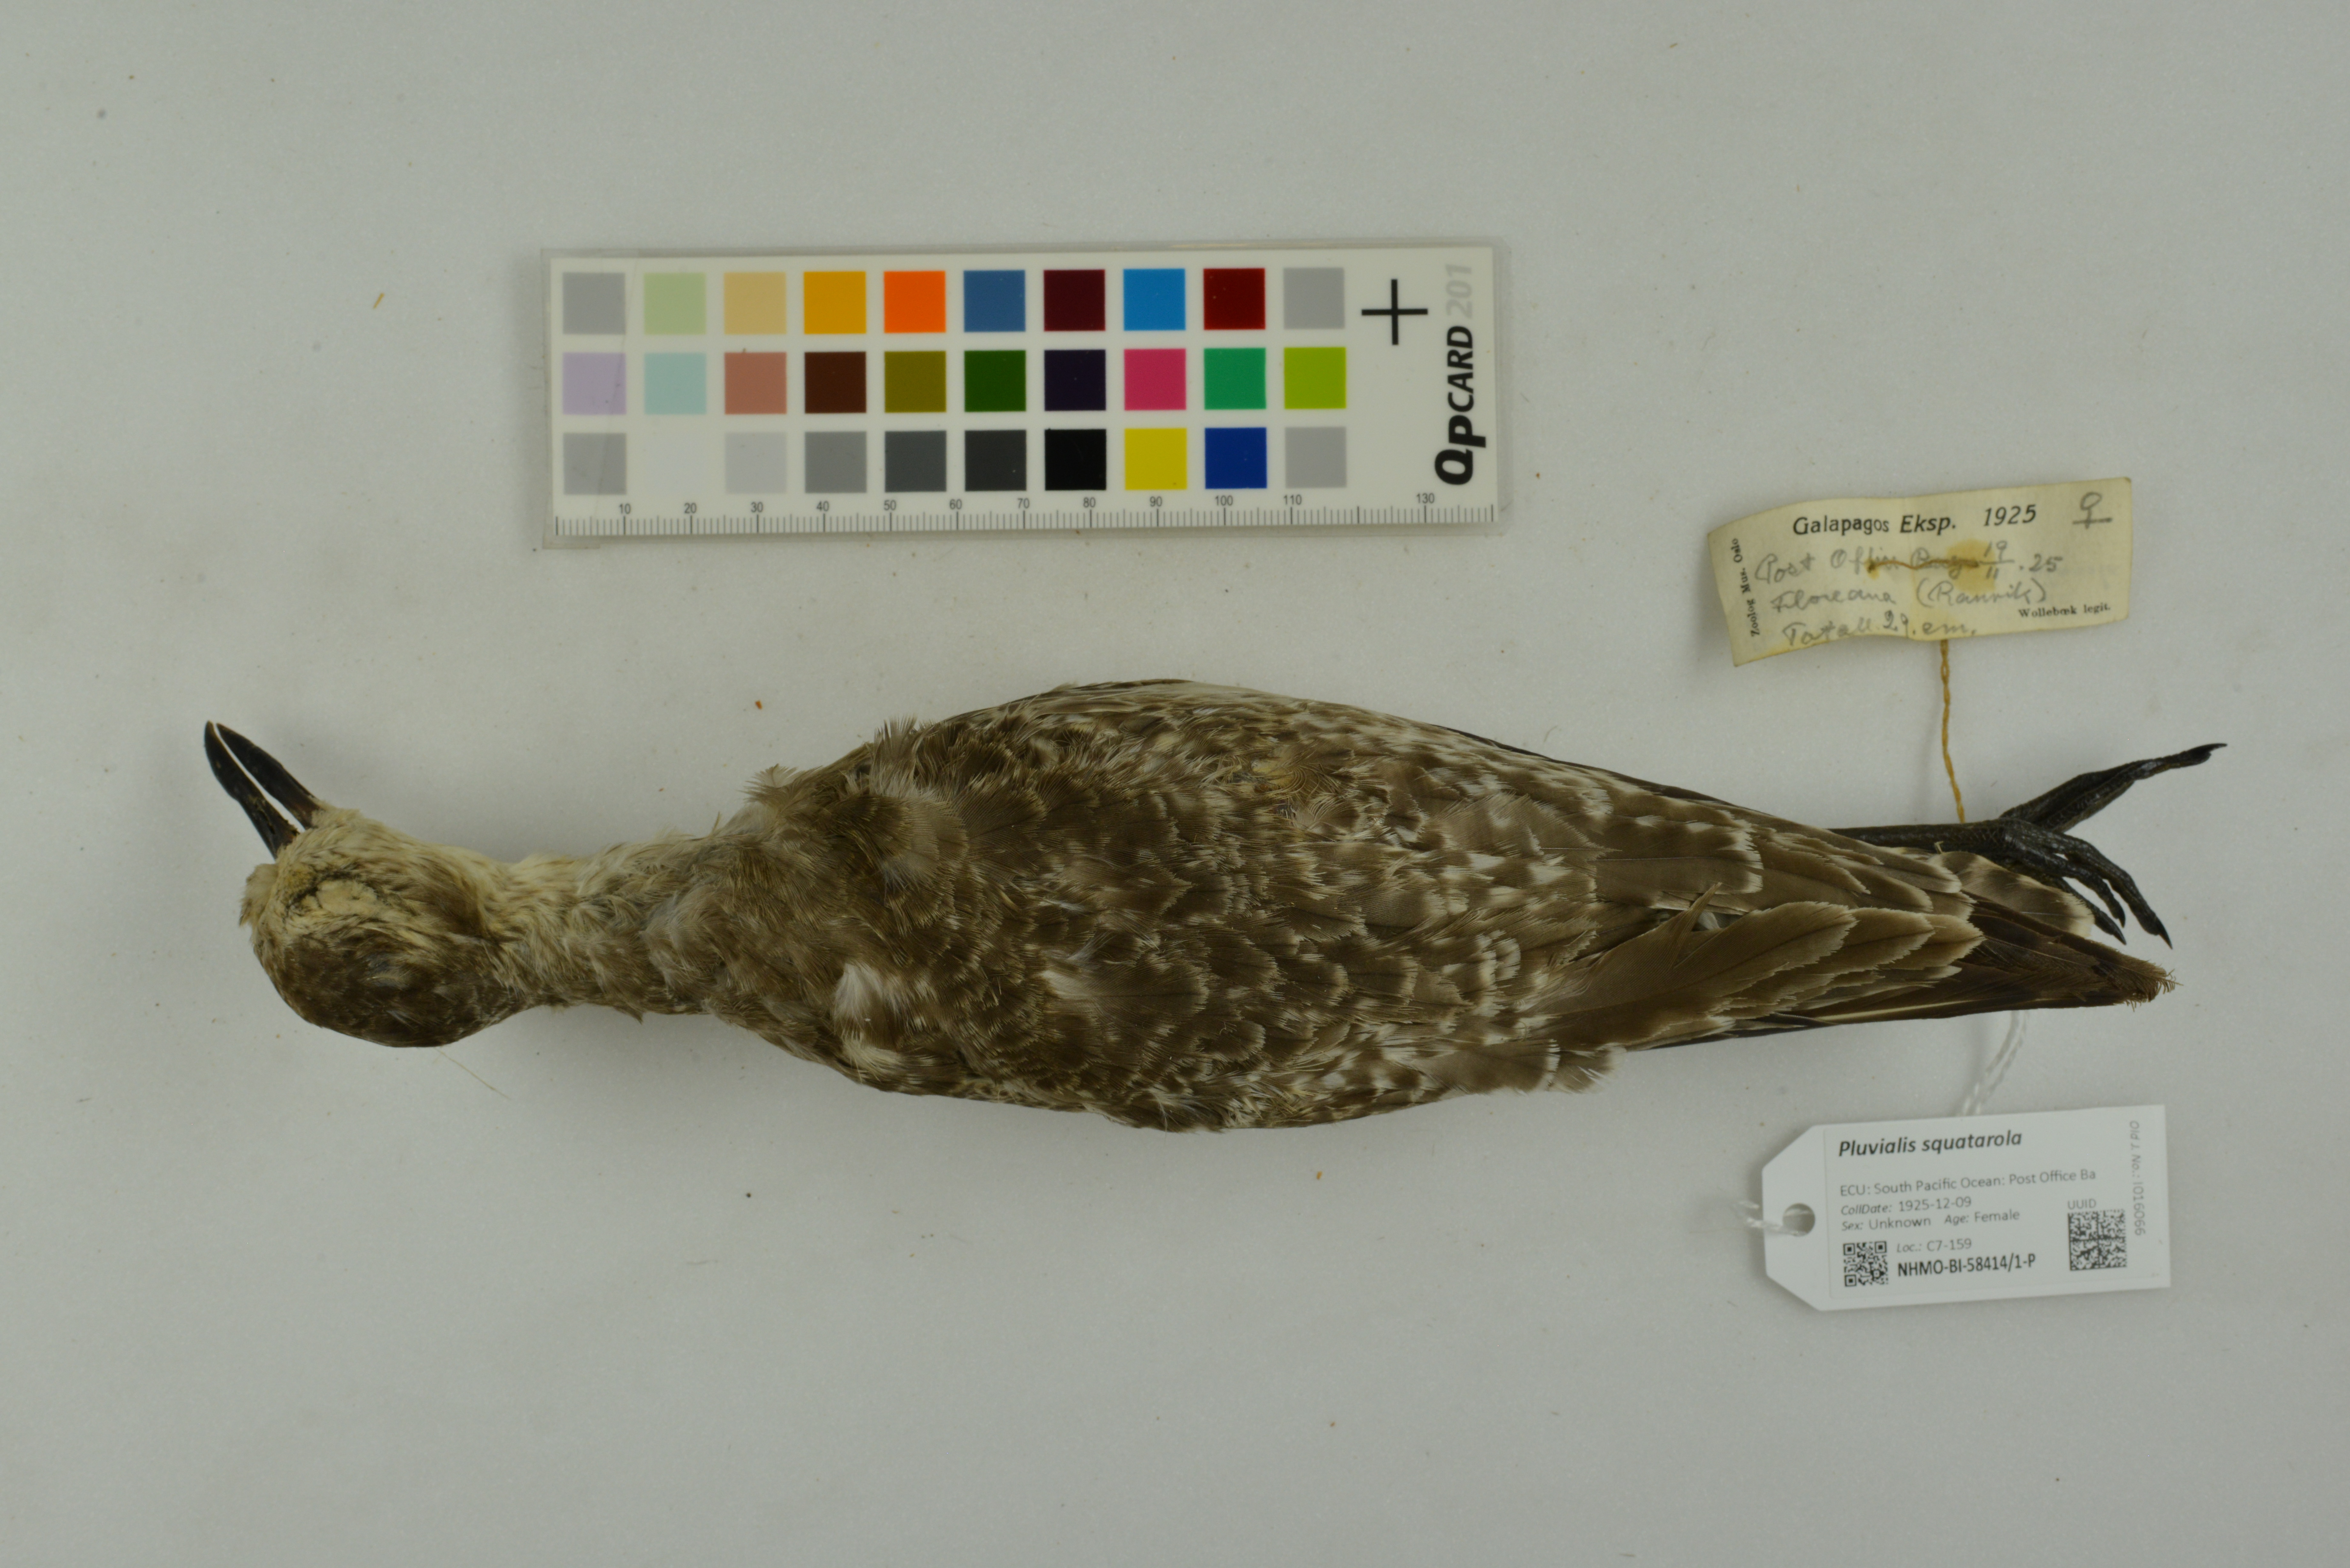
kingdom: Animalia
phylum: Chordata
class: Aves
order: Charadriiformes
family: Charadriidae
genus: Pluvialis
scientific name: Pluvialis squatarola
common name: Grey plover
